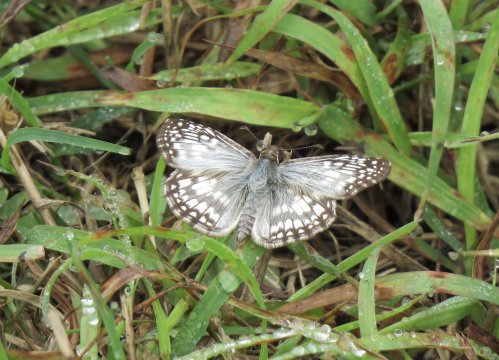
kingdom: Animalia
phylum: Arthropoda
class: Insecta
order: Lepidoptera
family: Hesperiidae
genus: Pyrgus
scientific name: Pyrgus oileus
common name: Tropical Checkered-Skipper
